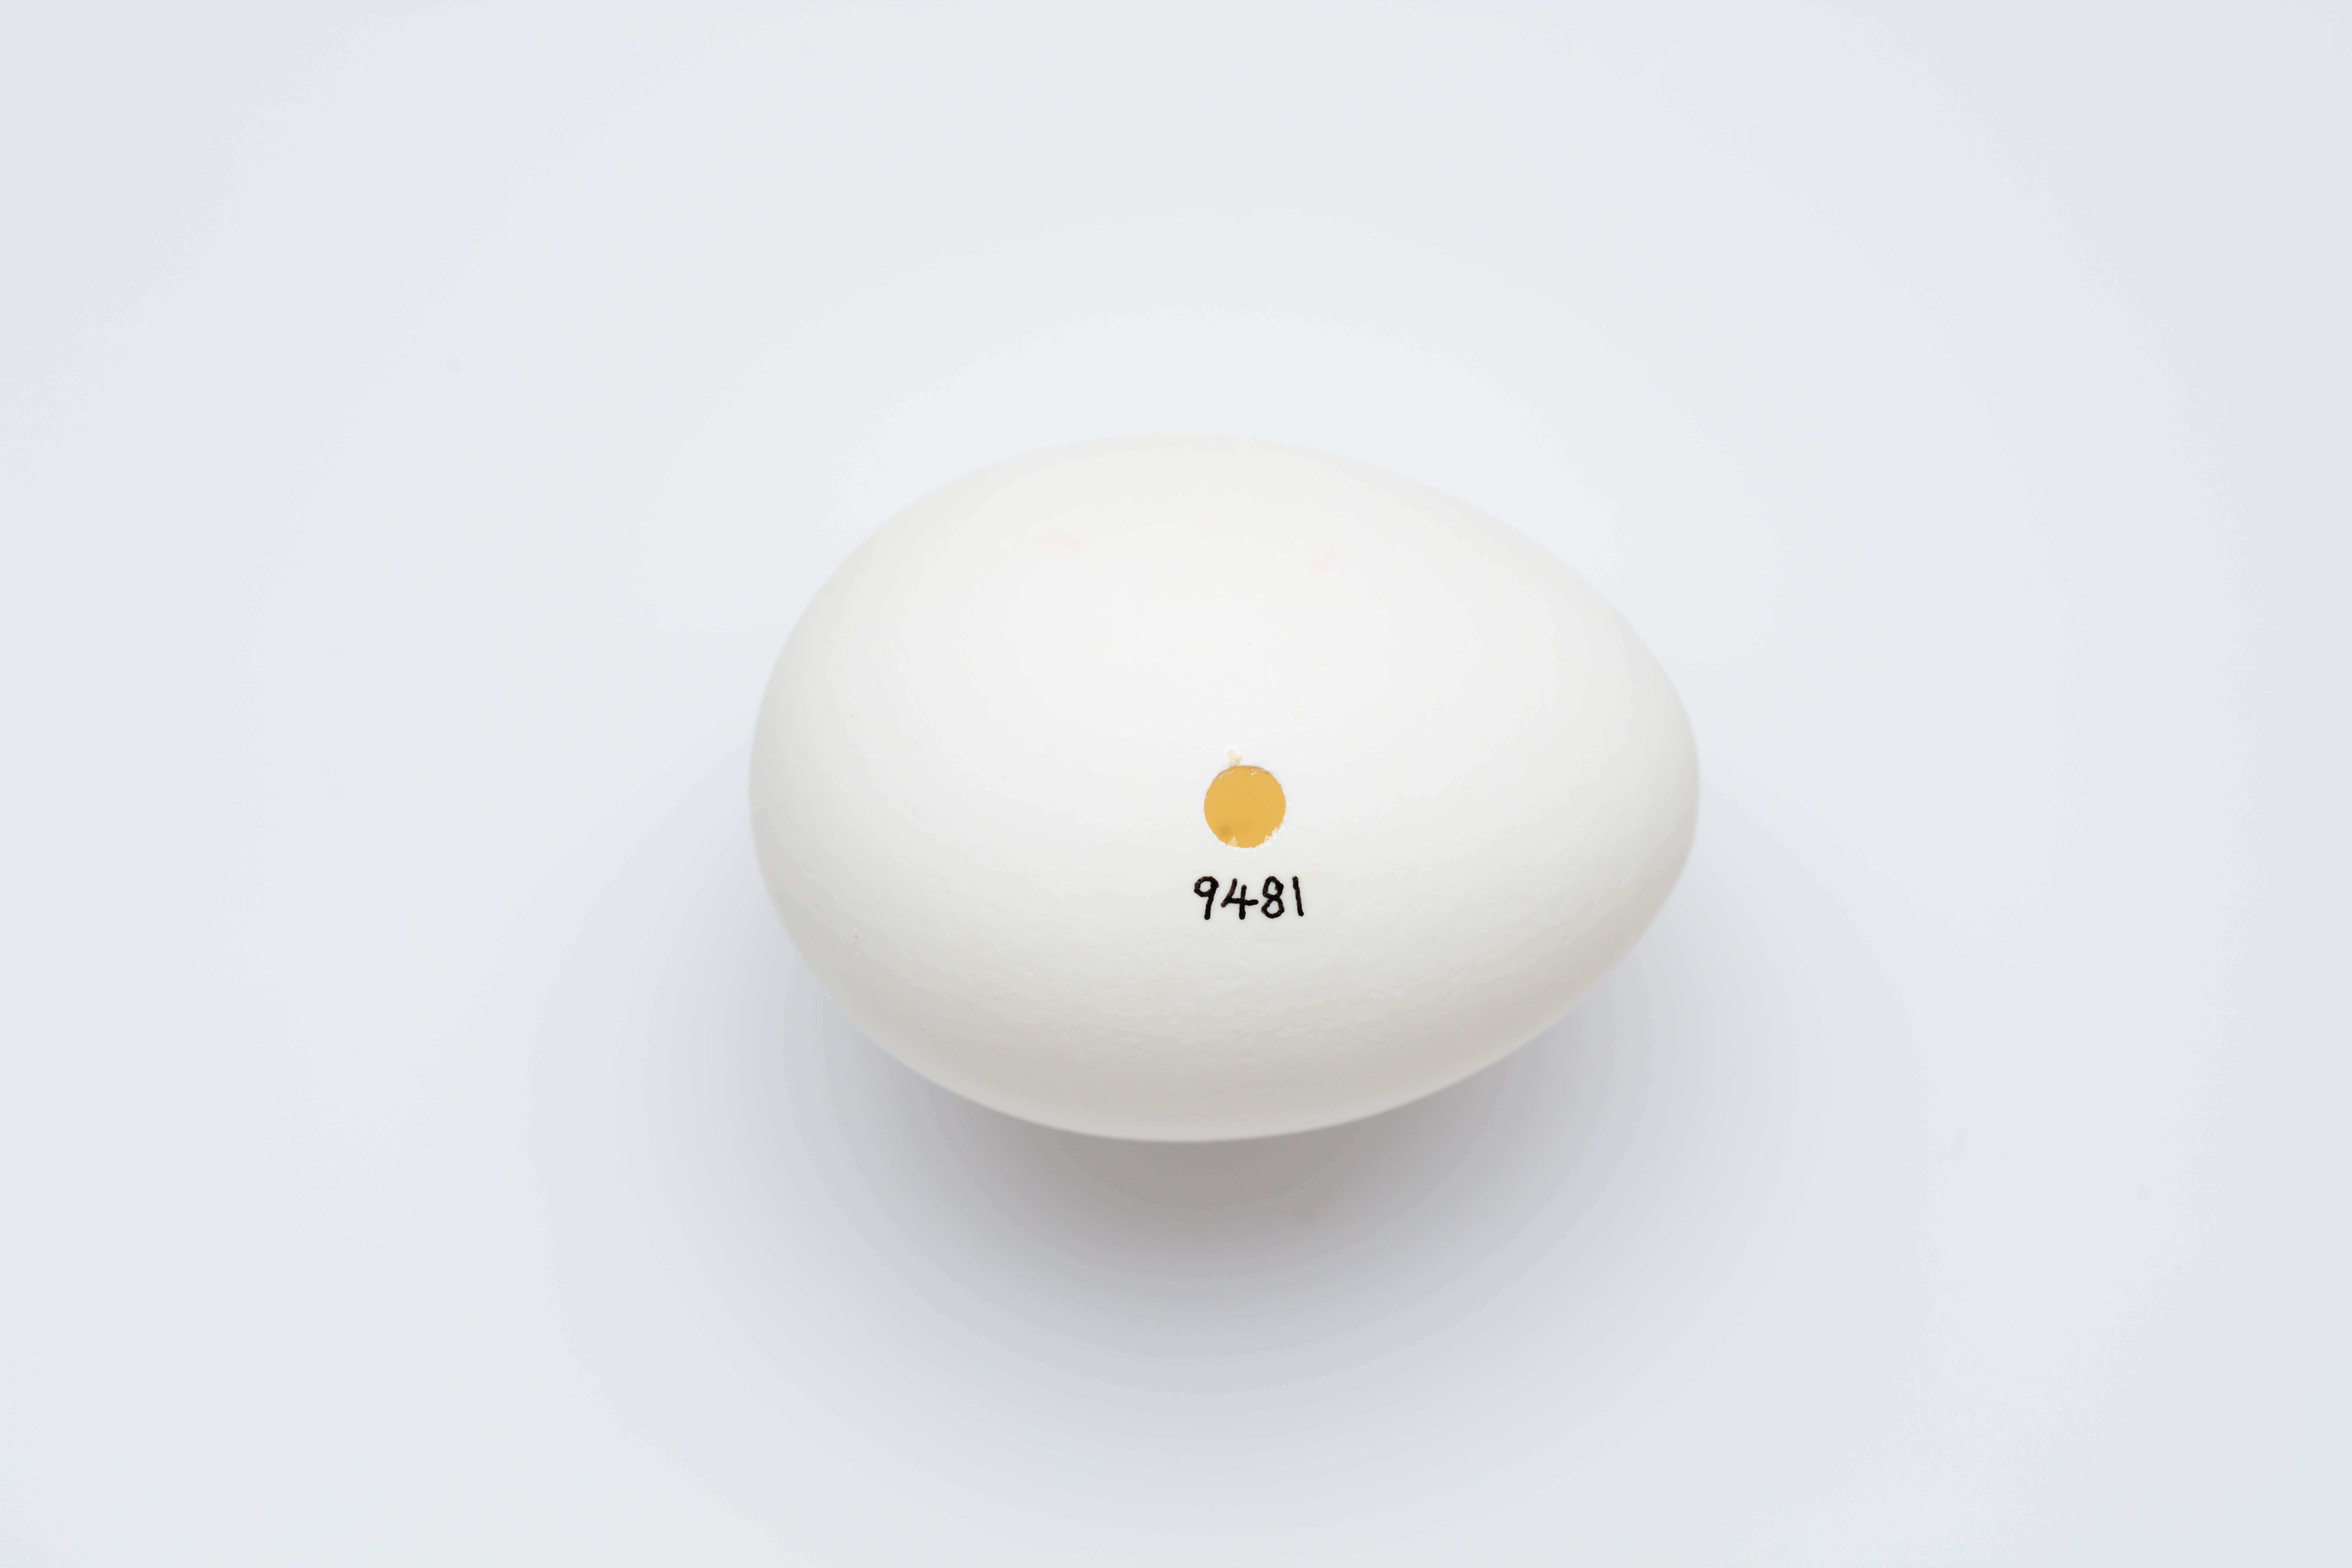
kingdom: Animalia
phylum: Chordata
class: Aves
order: Galliformes
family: Phasianidae
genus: Gallus
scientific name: Gallus gallus
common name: Red junglefowl
